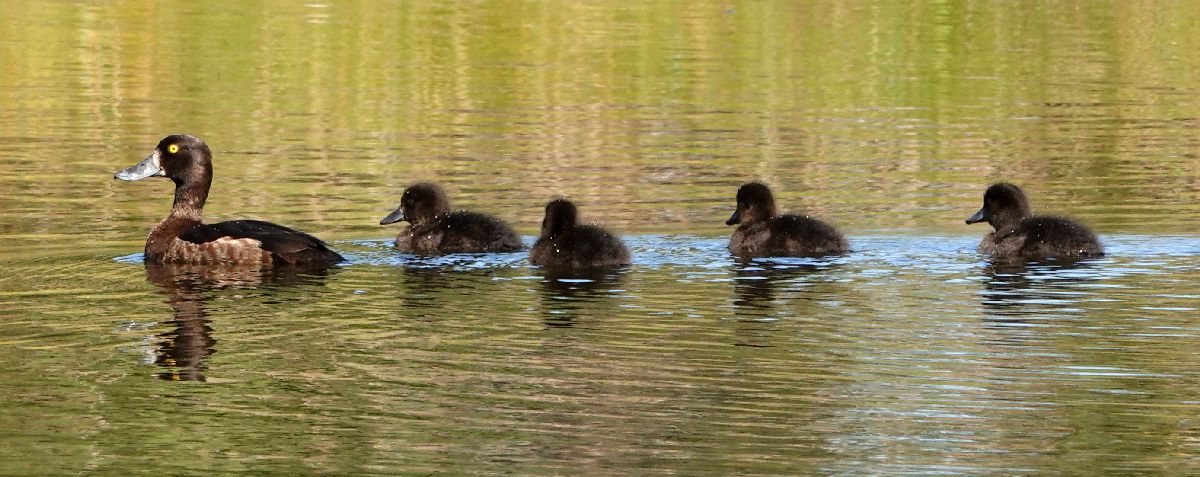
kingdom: Animalia
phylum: Chordata
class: Aves
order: Anseriformes
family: Anatidae
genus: Aythya
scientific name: Aythya fuligula
